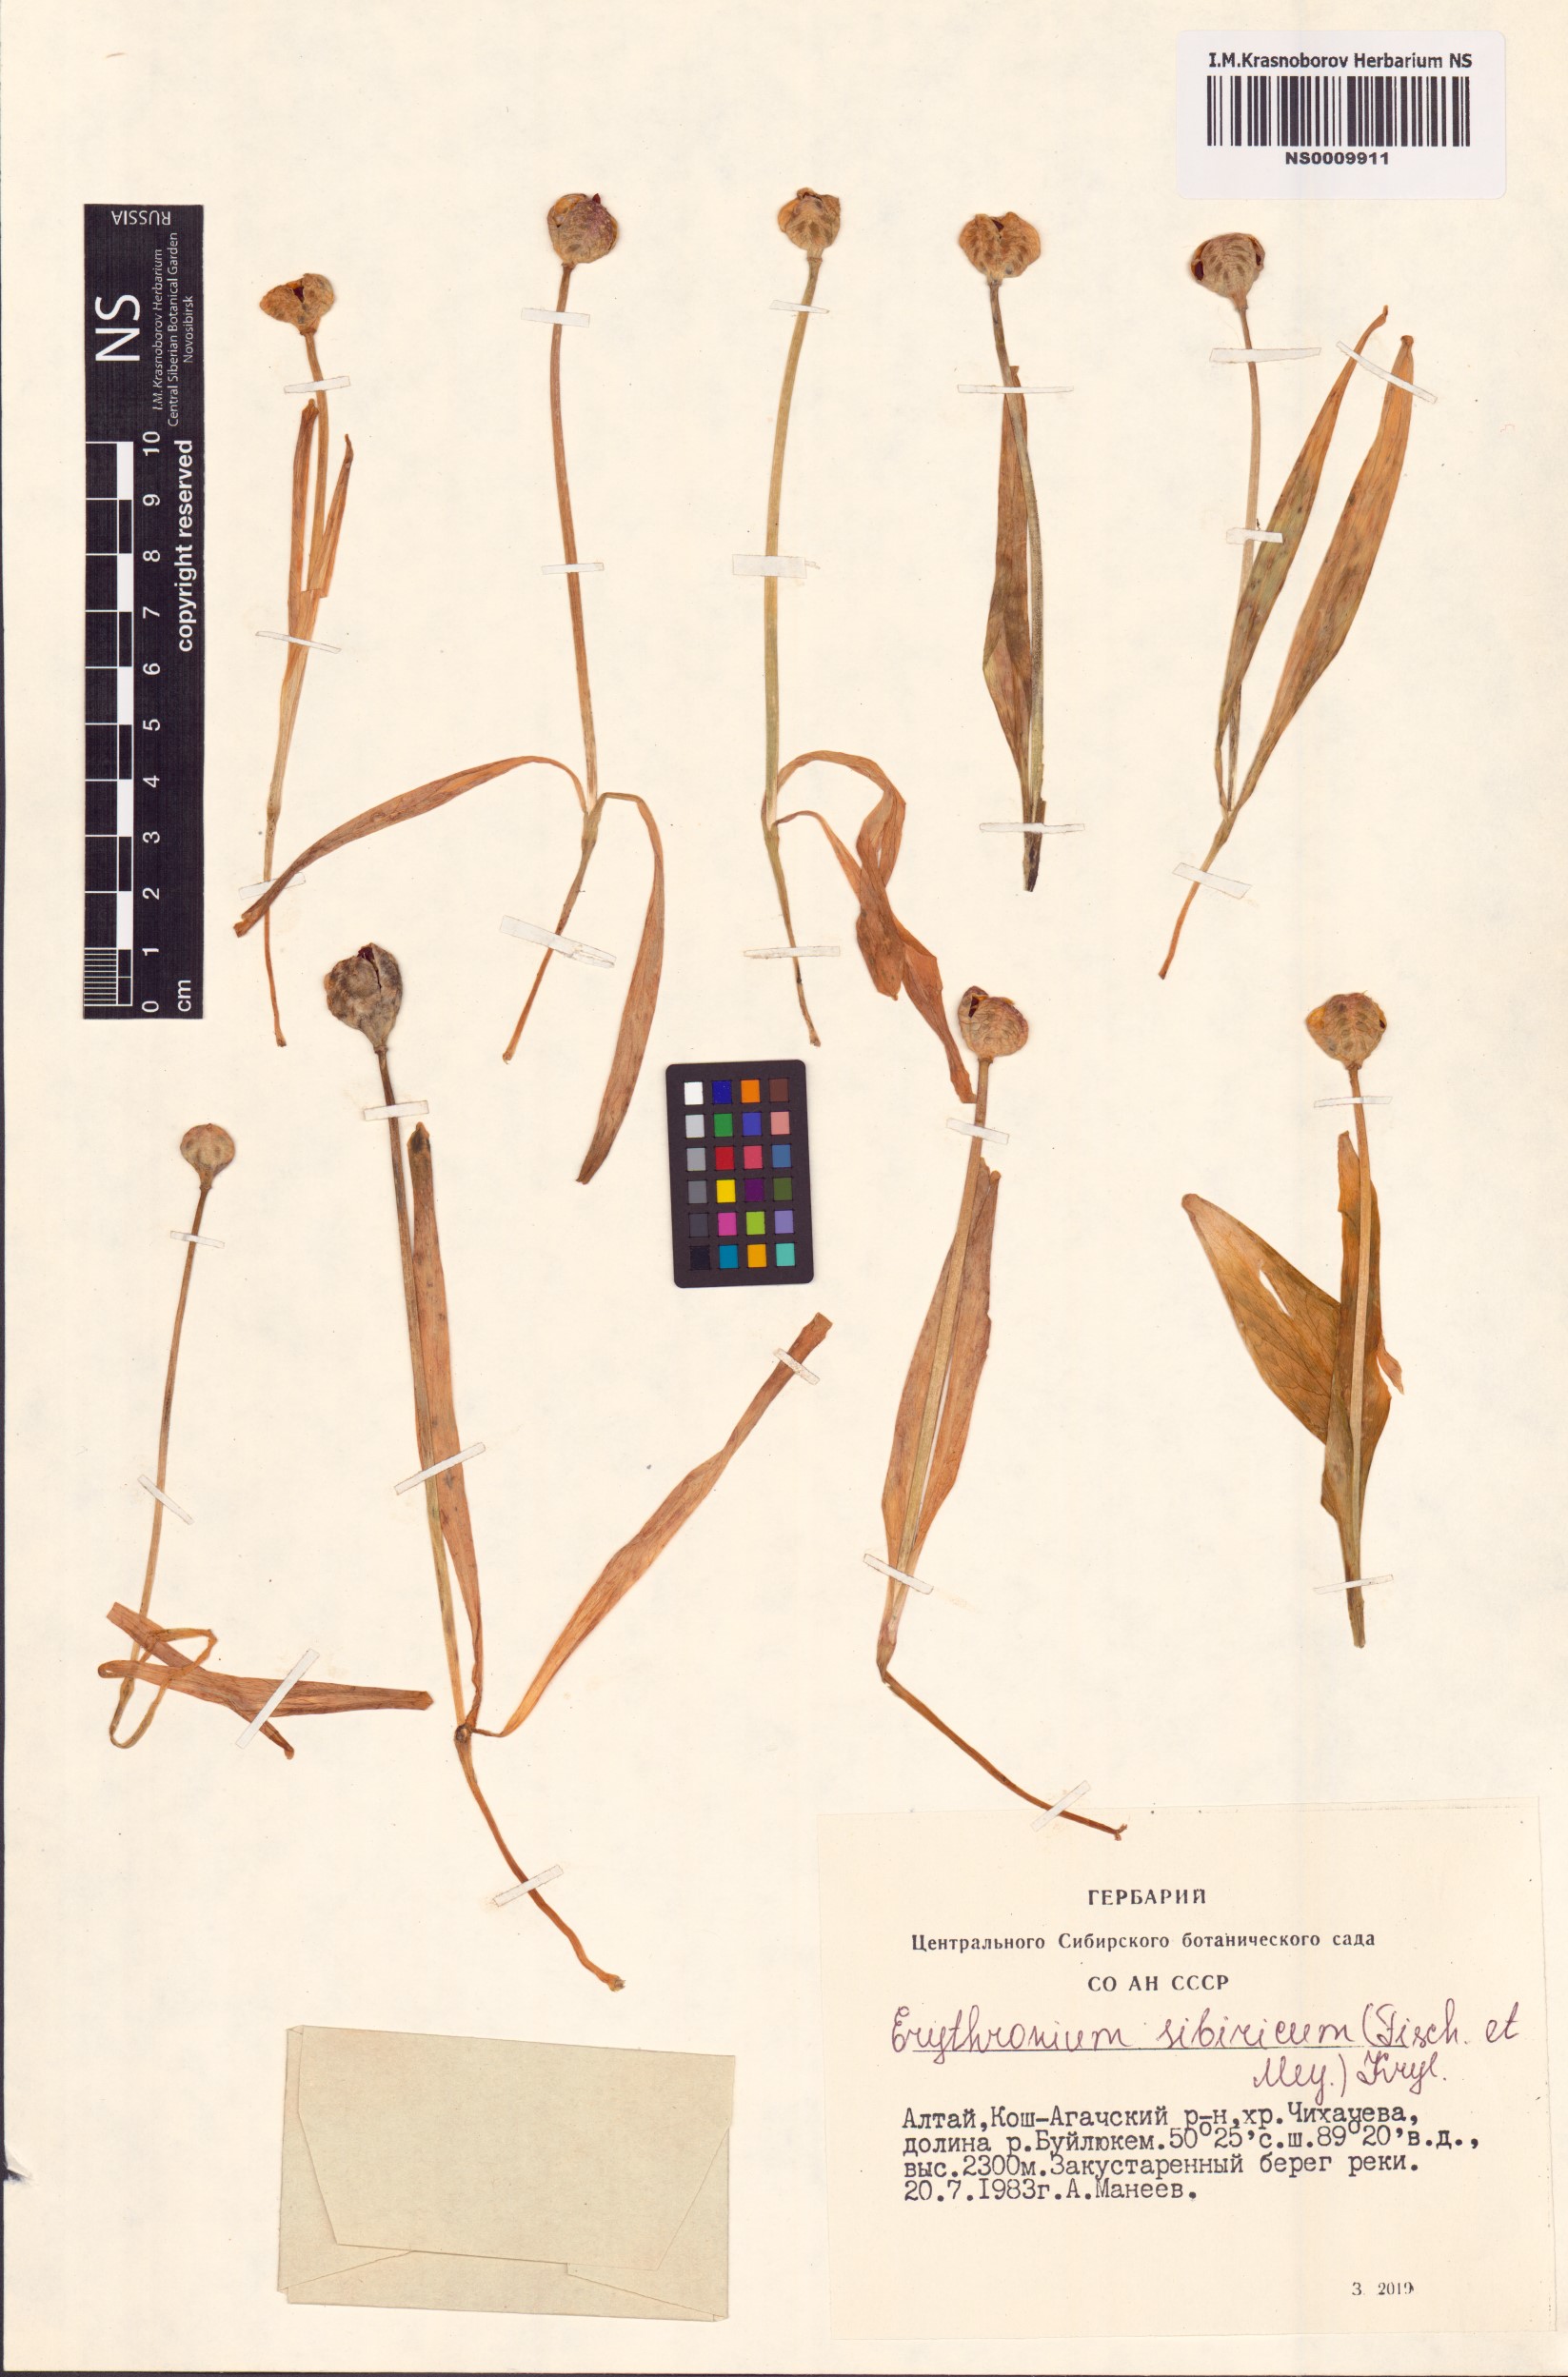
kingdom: Plantae
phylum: Tracheophyta
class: Liliopsida
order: Liliales
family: Liliaceae
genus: Erythronium
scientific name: Erythronium sibiricum
